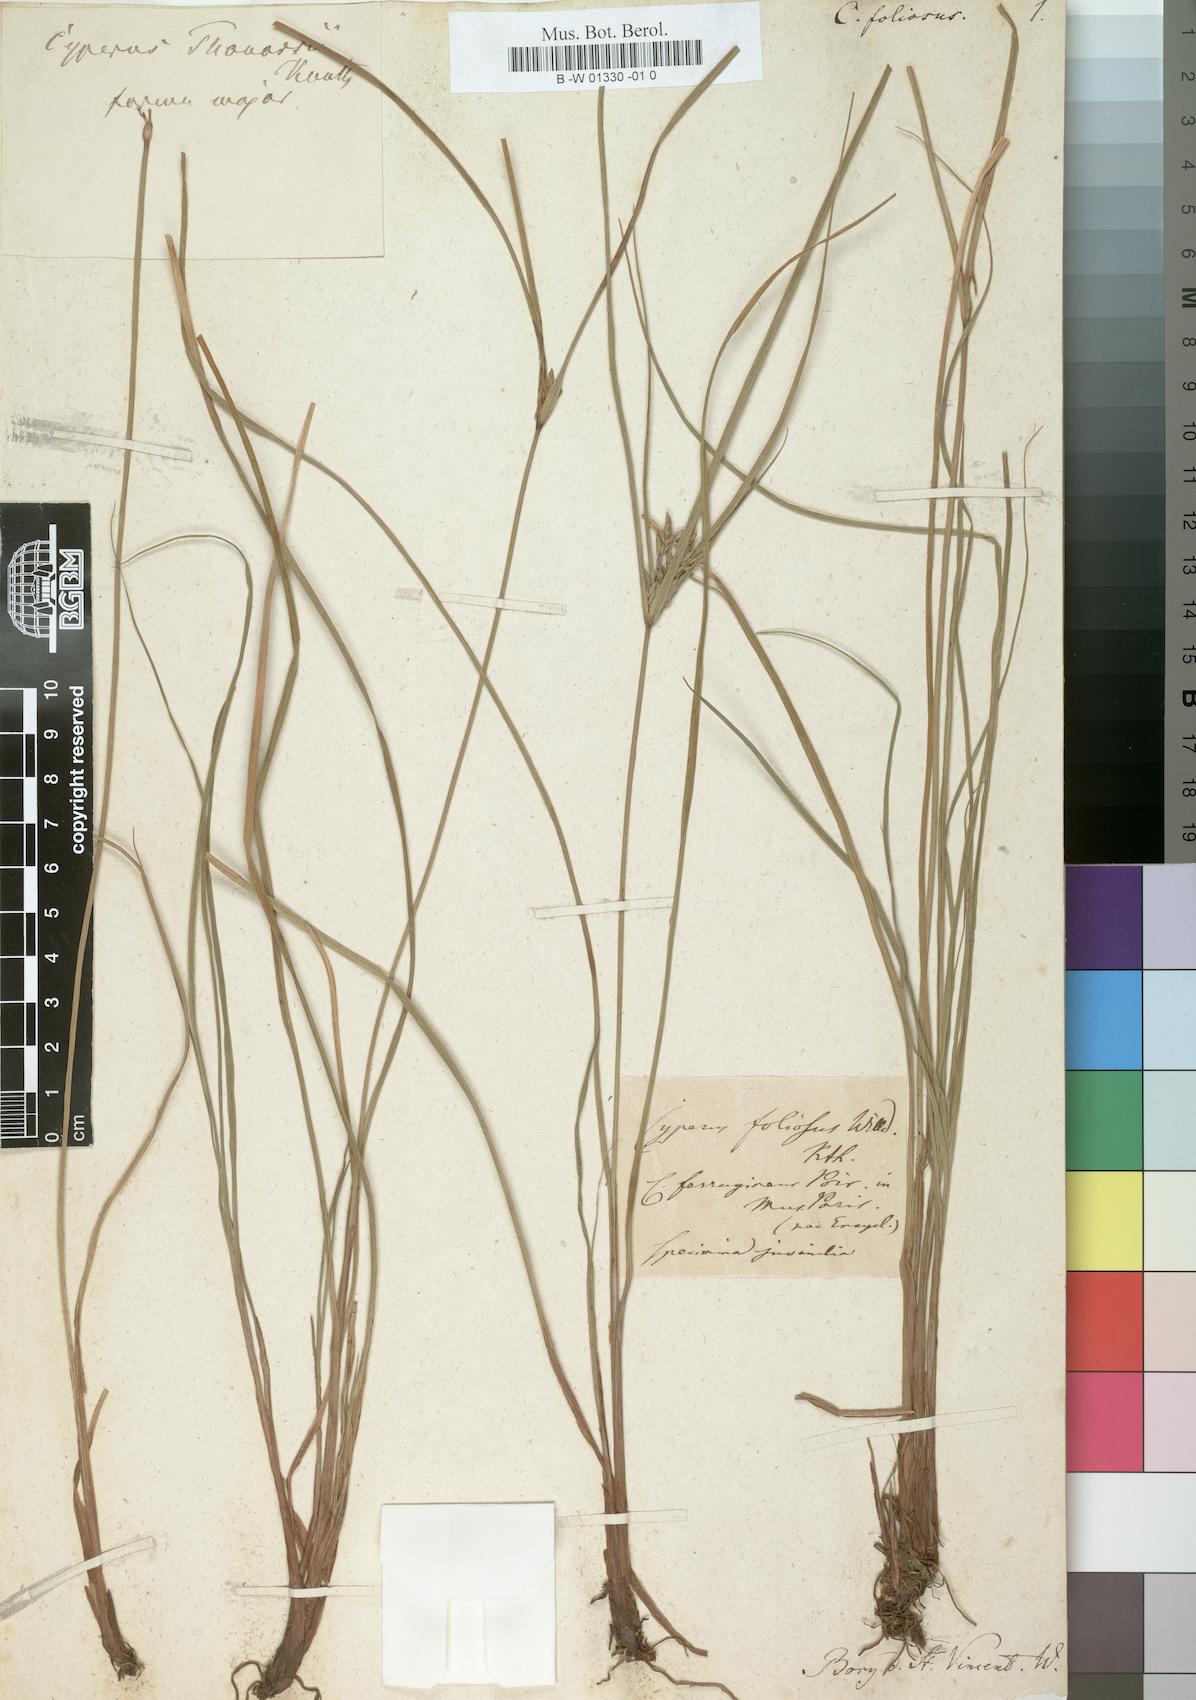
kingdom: Plantae
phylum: Tracheophyta
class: Liliopsida
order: Poales
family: Cyperaceae
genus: Cyperus
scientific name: Cyperus
